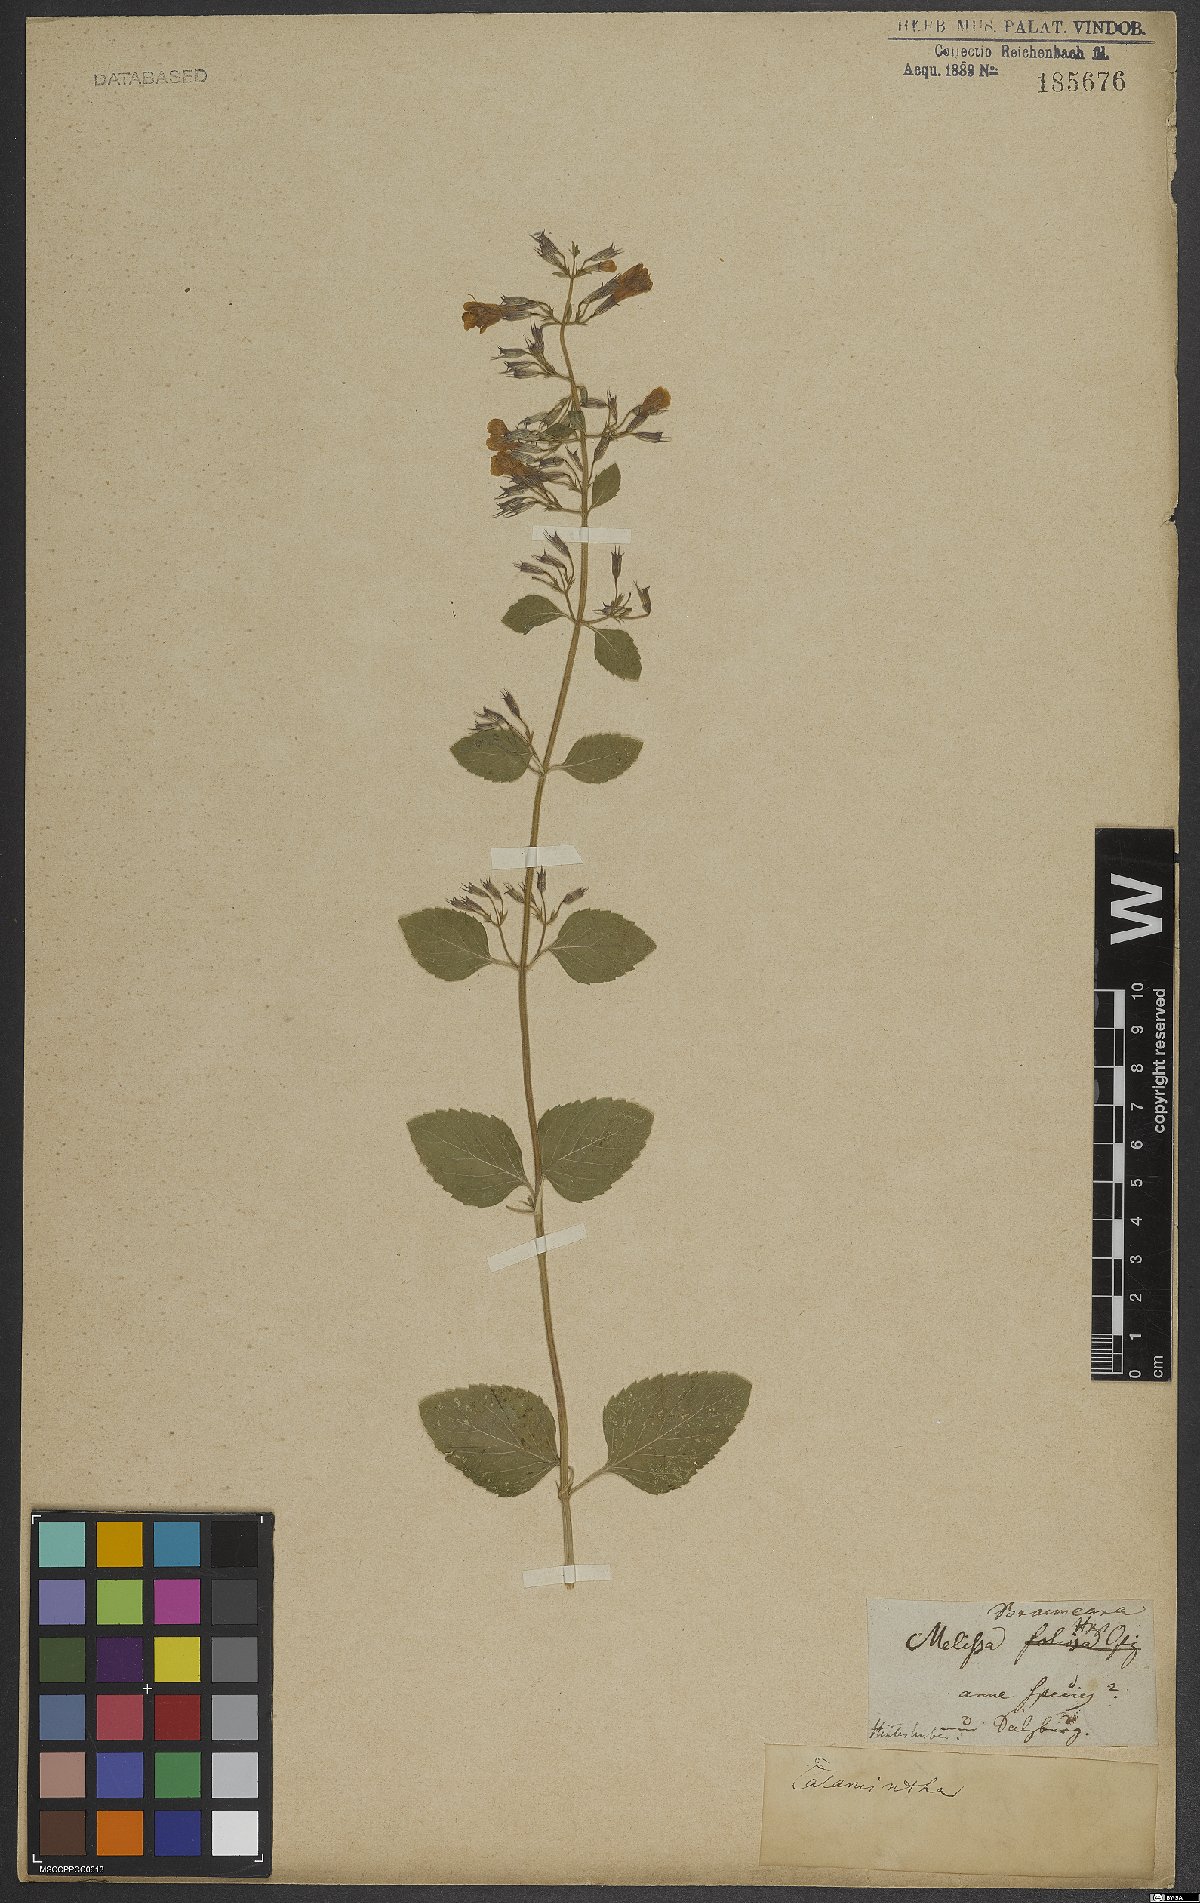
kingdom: Plantae
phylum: Tracheophyta
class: Magnoliopsida
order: Lamiales
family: Lamiaceae
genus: Calamintha
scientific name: Calamintha
